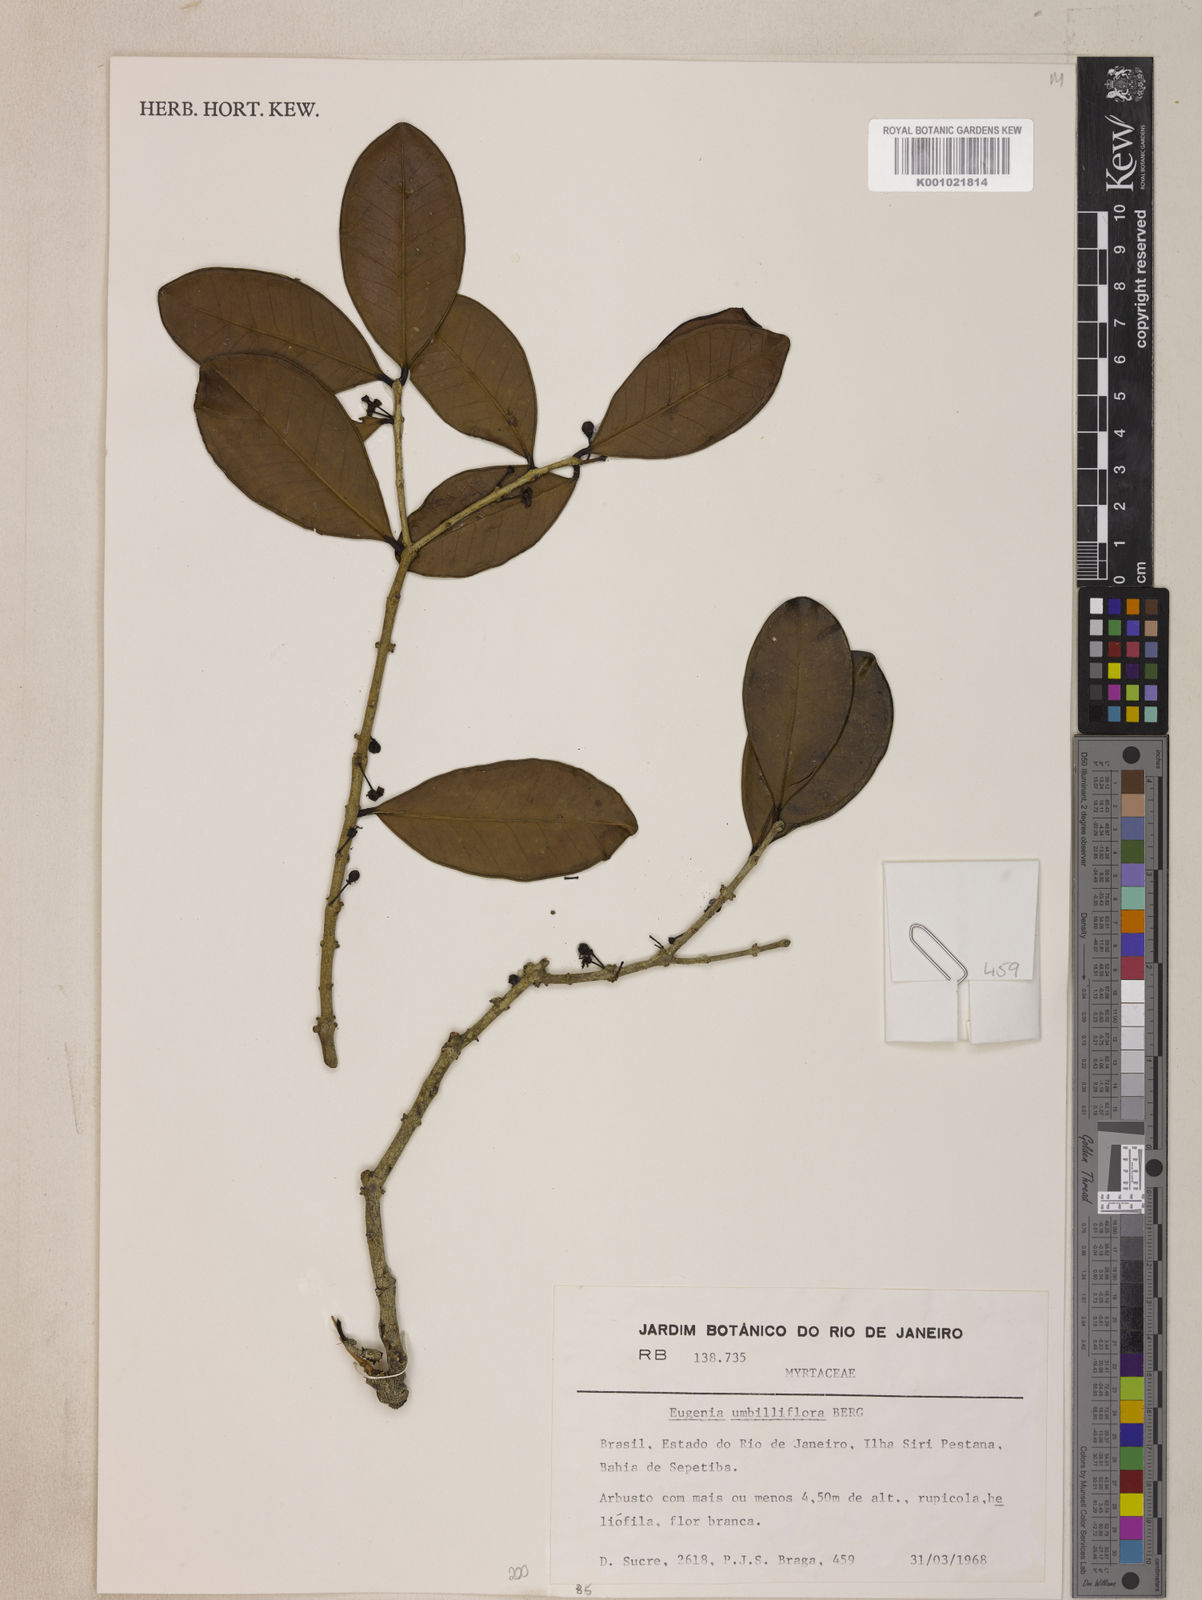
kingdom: Plantae
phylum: Tracheophyta
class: Magnoliopsida
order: Myrtales
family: Myrtaceae
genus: Eugenia
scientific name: Eugenia astringens
